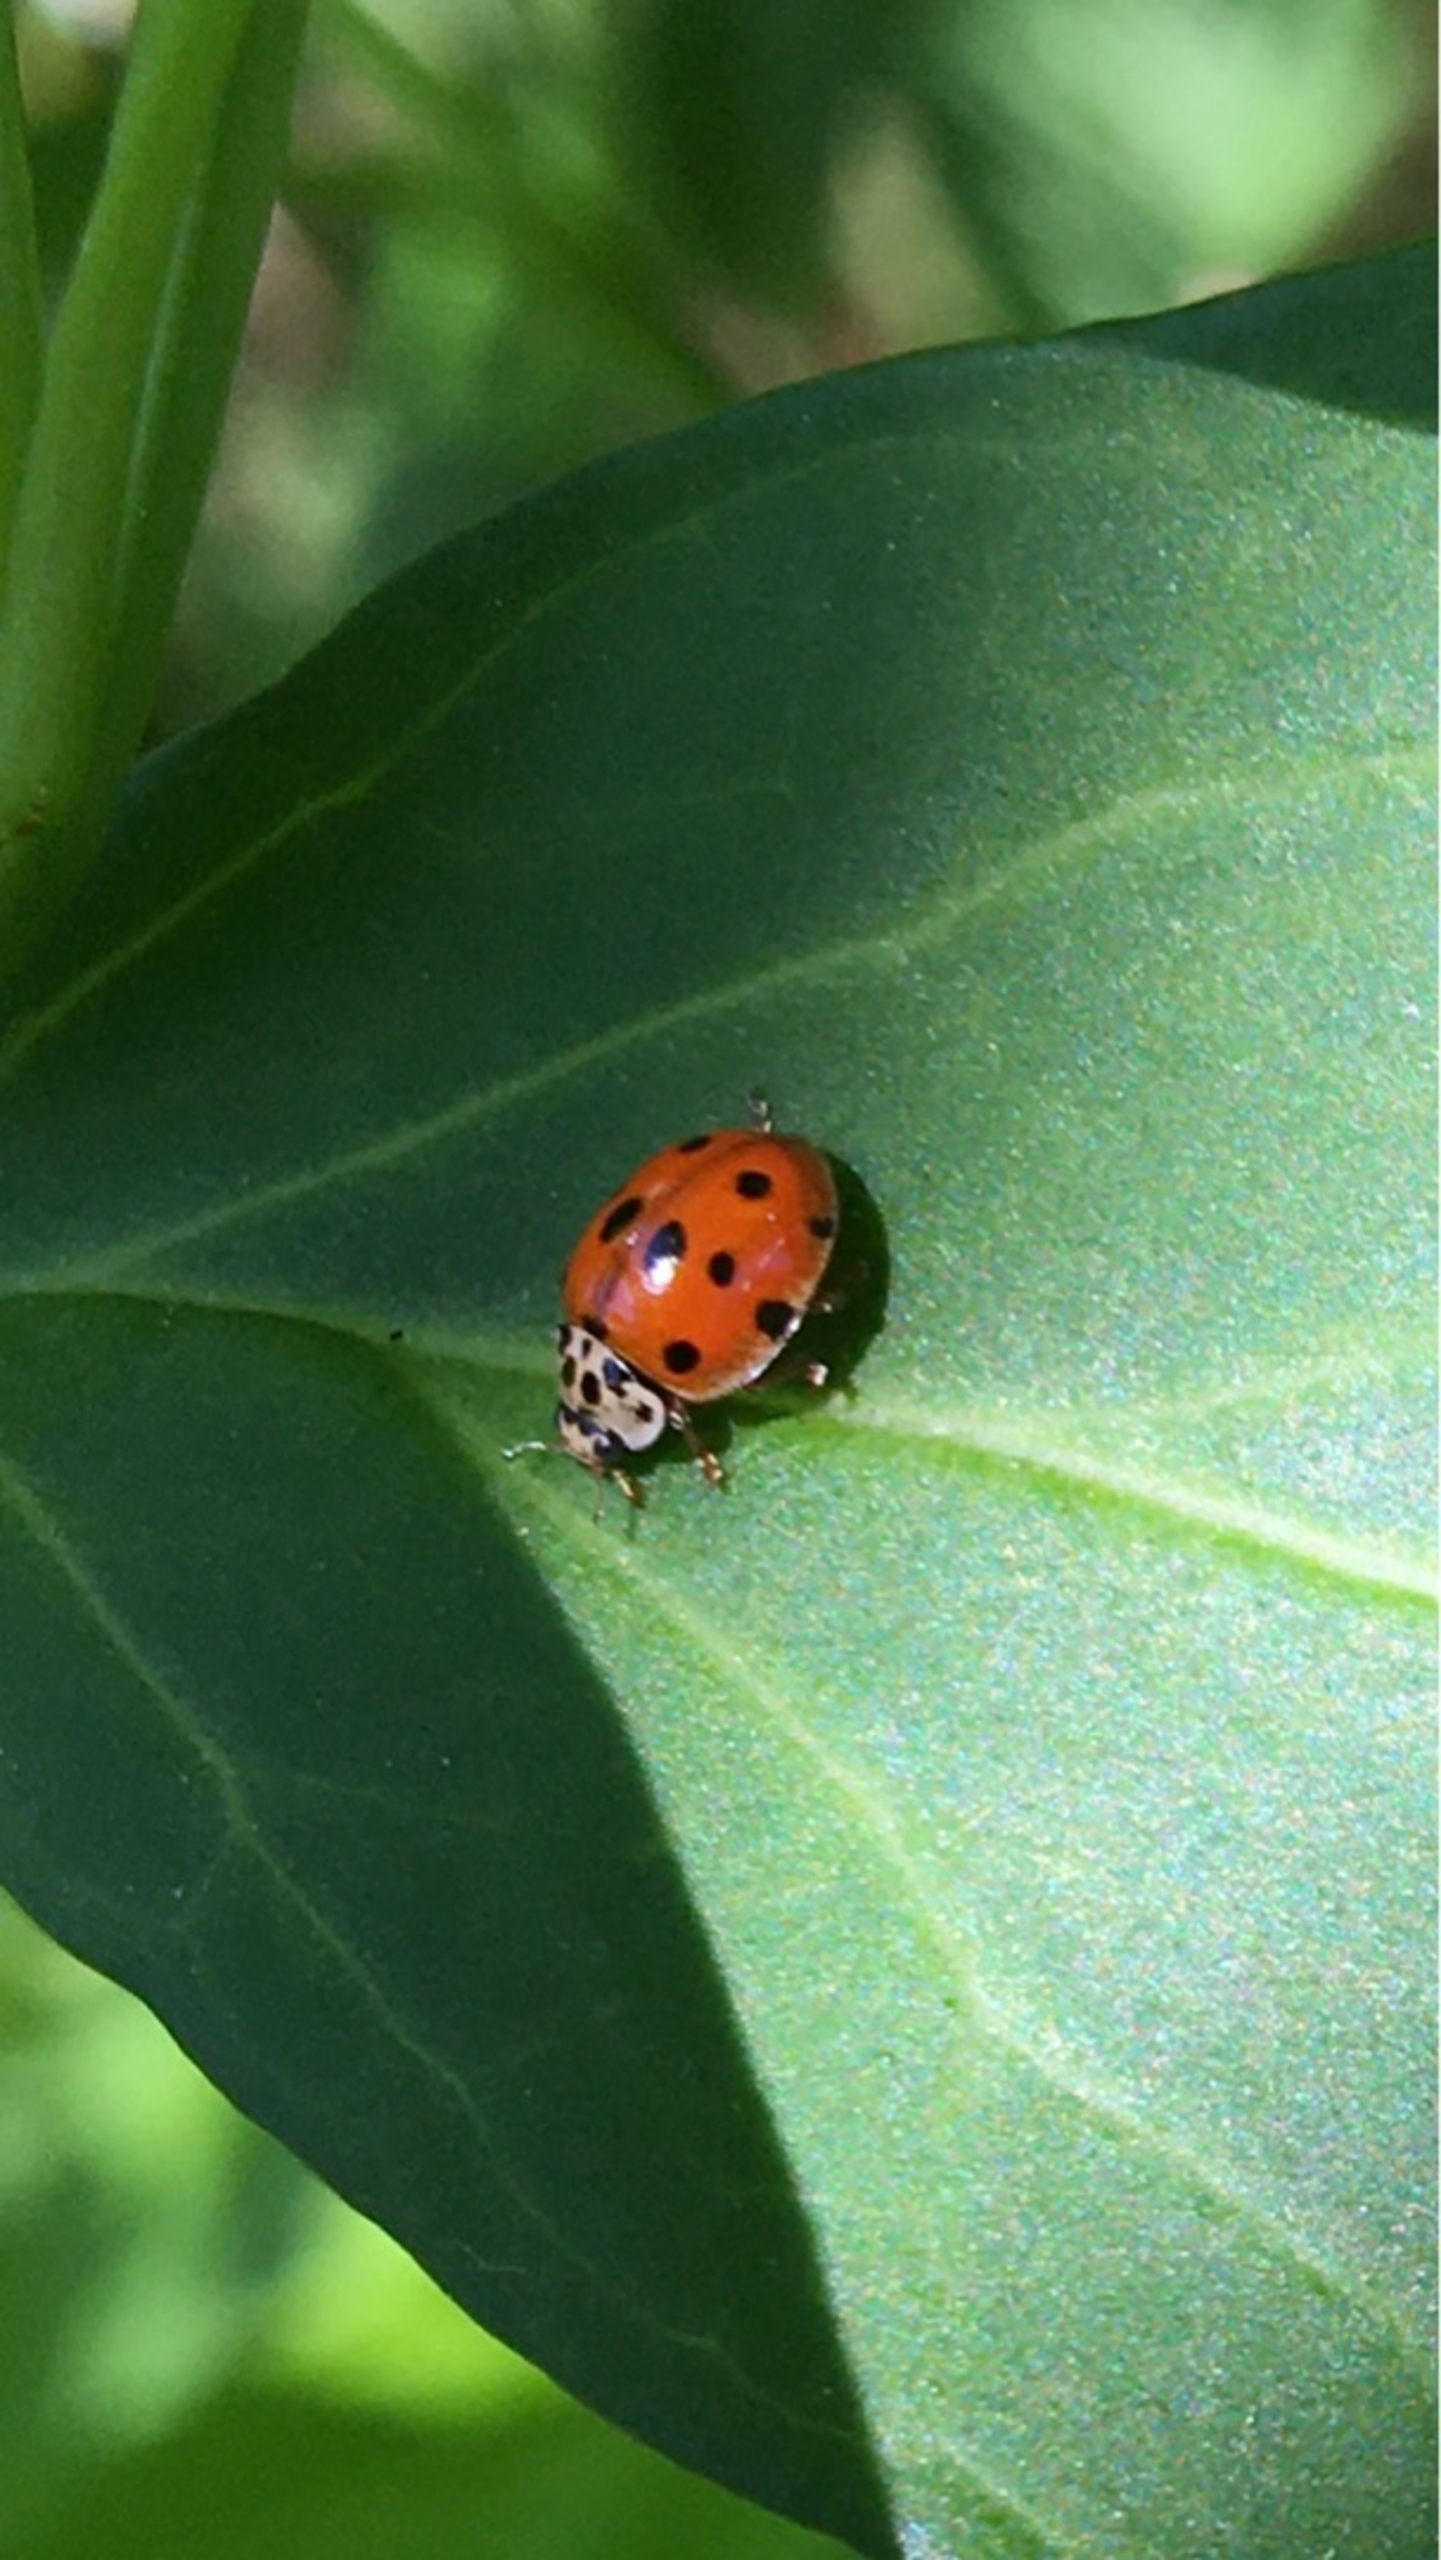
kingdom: Animalia
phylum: Arthropoda
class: Insecta
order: Coleoptera
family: Coccinellidae
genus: Adalia
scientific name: Adalia decempunctata
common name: Tiplettet mariehøne
